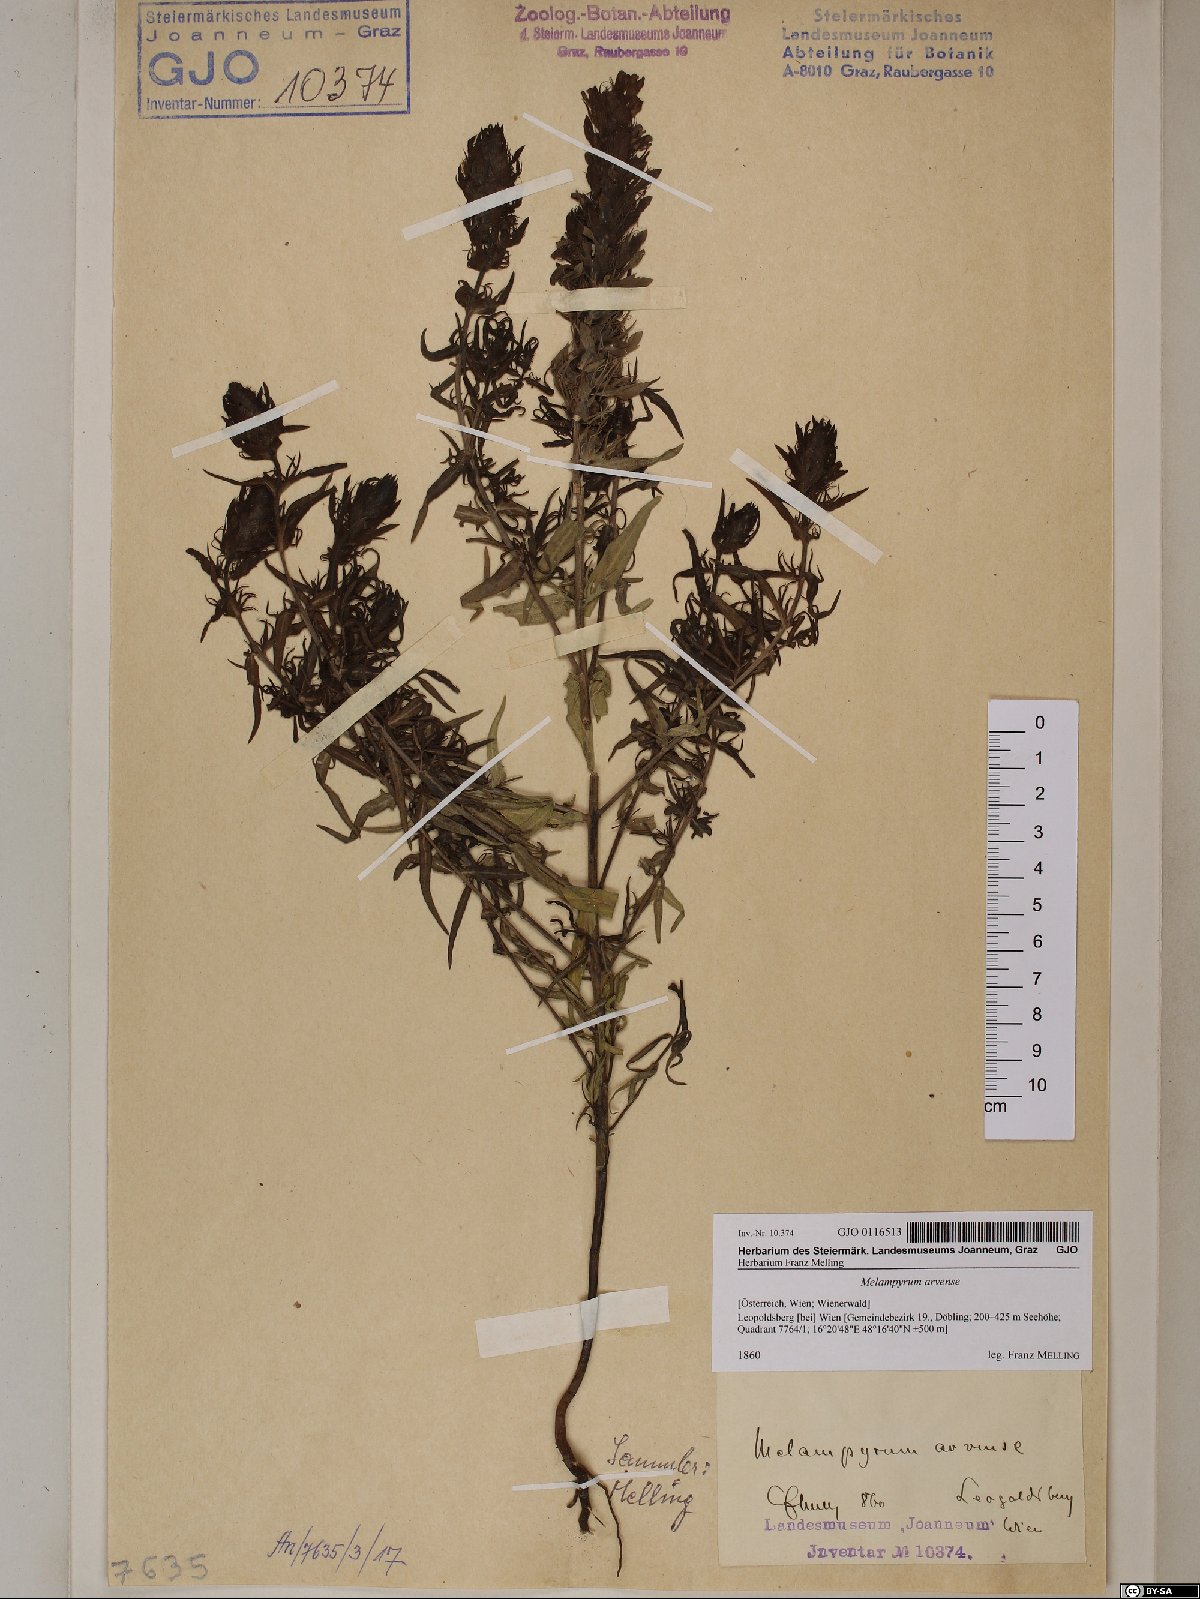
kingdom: Plantae
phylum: Tracheophyta
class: Magnoliopsida
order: Lamiales
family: Orobanchaceae
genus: Melampyrum
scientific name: Melampyrum arvense
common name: Field cow-wheat
